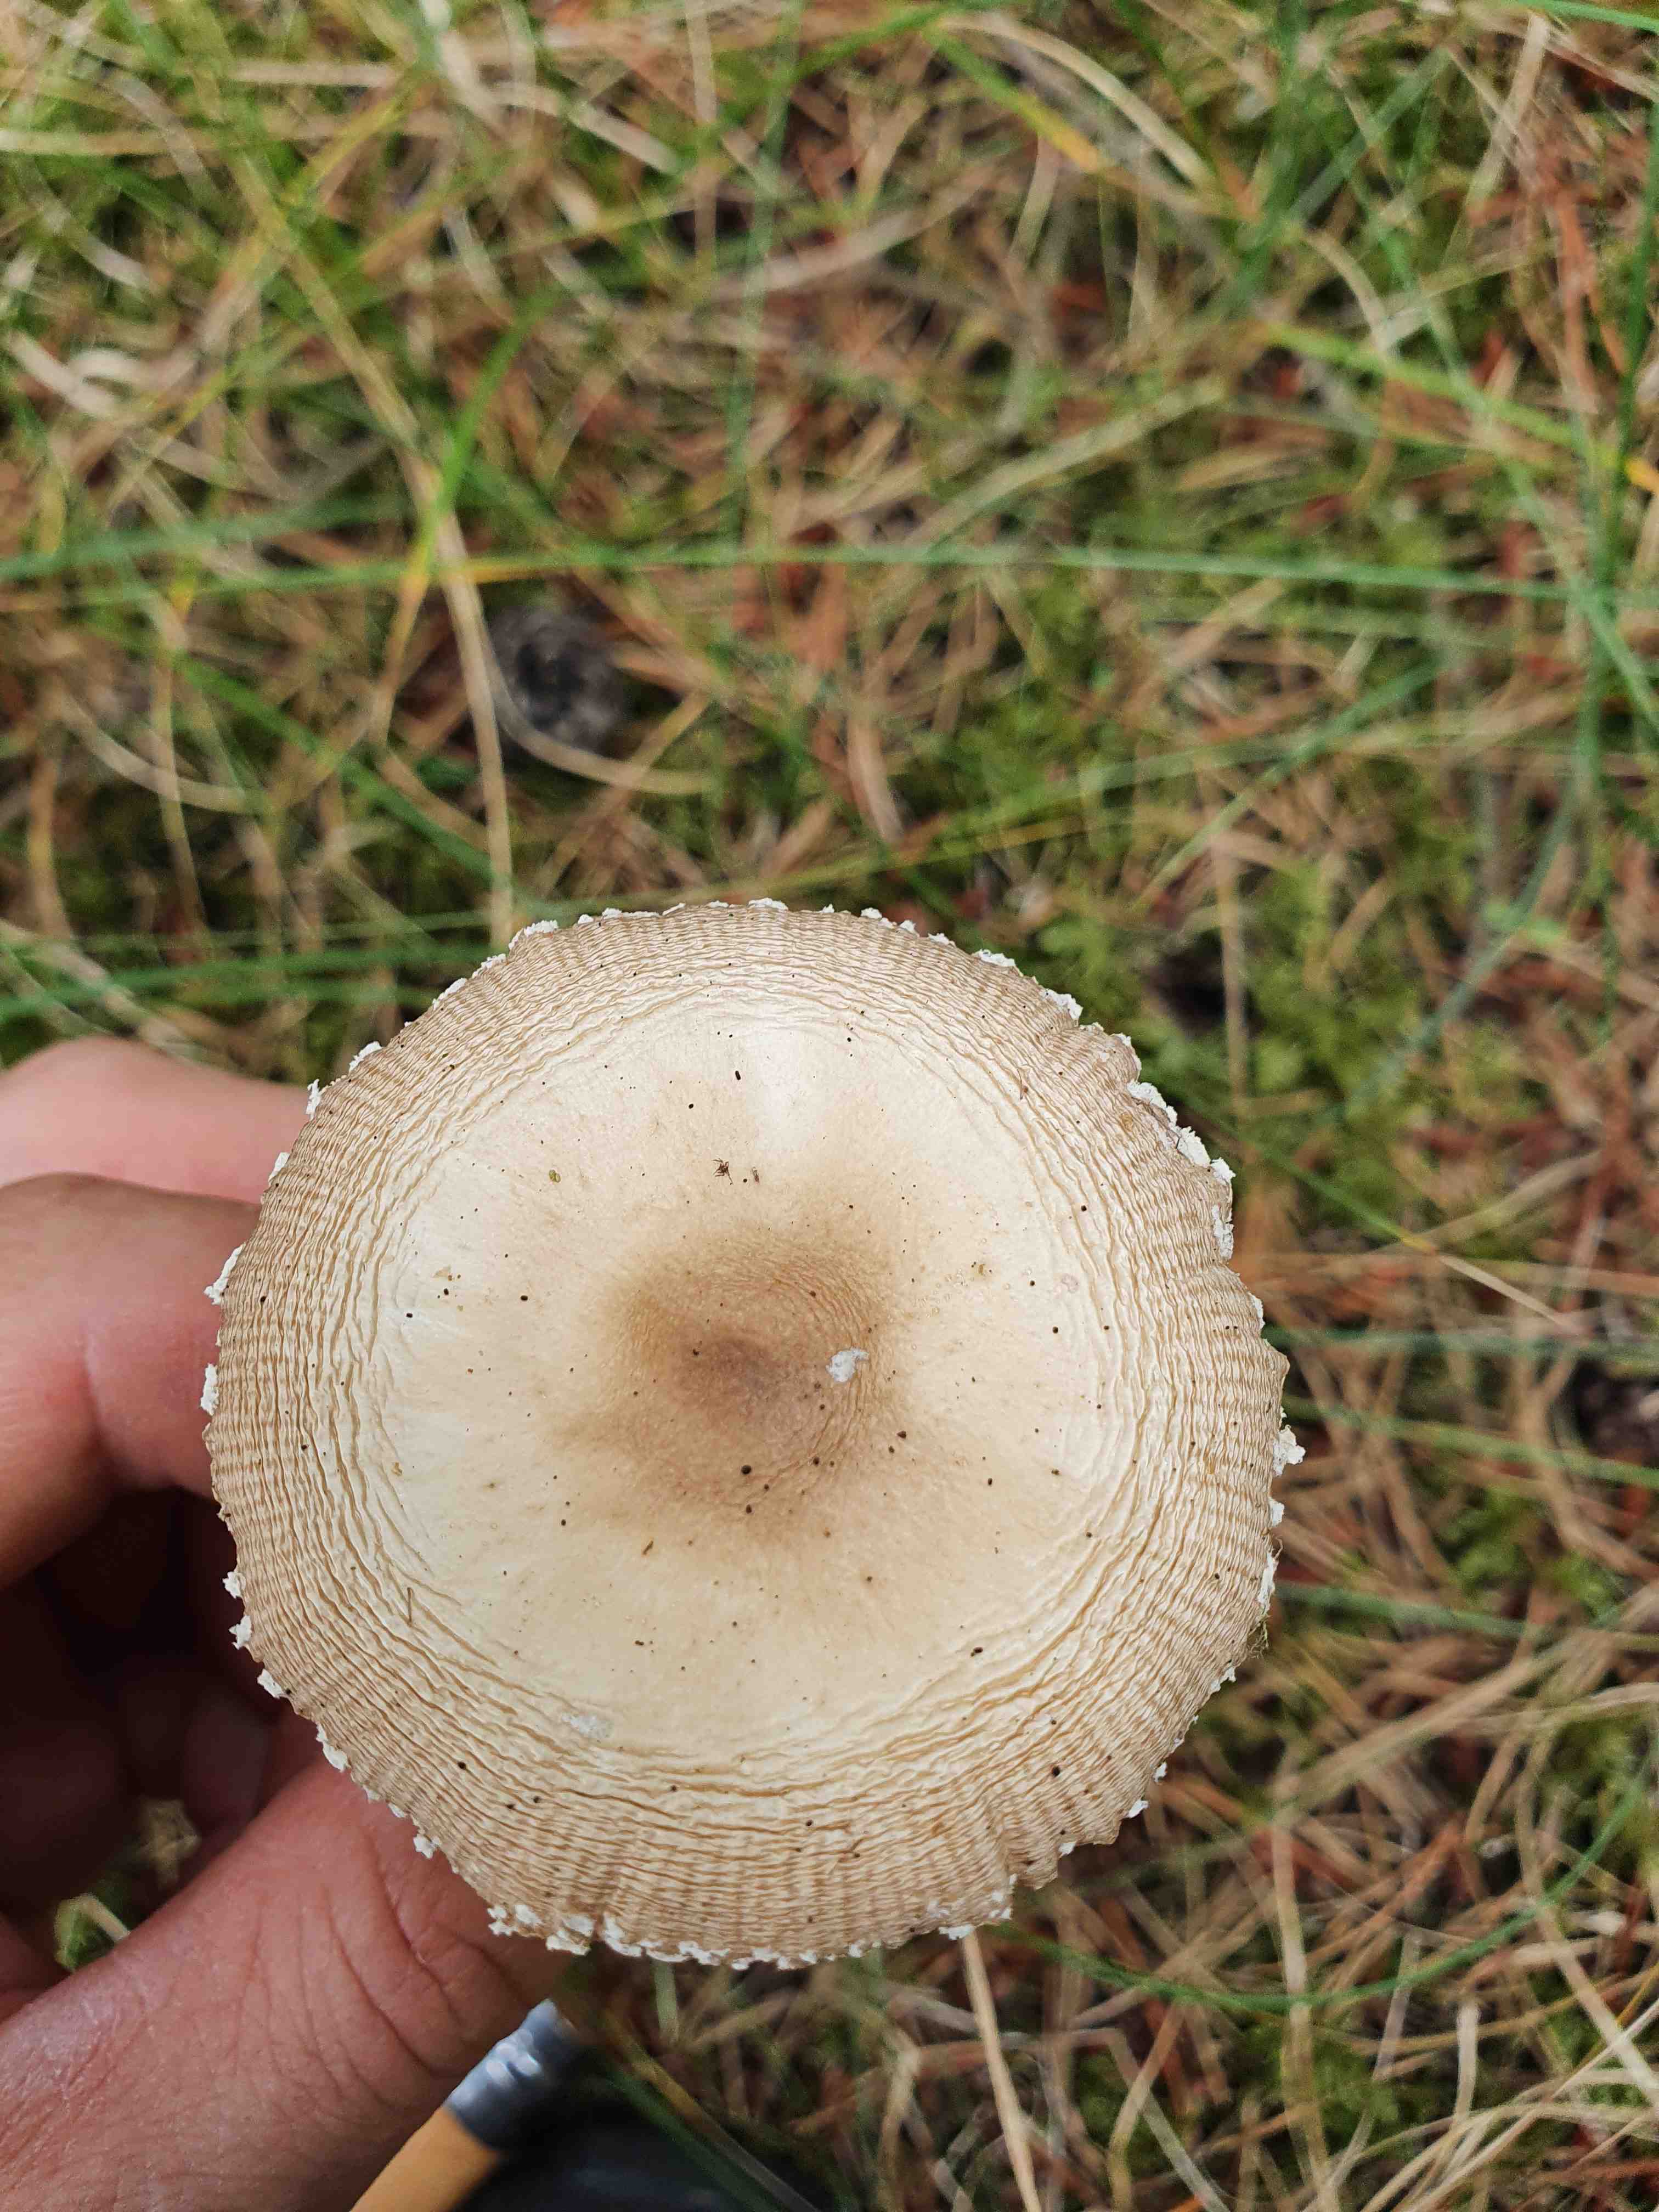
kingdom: Fungi
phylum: Basidiomycota
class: Agaricomycetes
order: Agaricales
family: Amanitaceae
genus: Amanita
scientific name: Amanita
